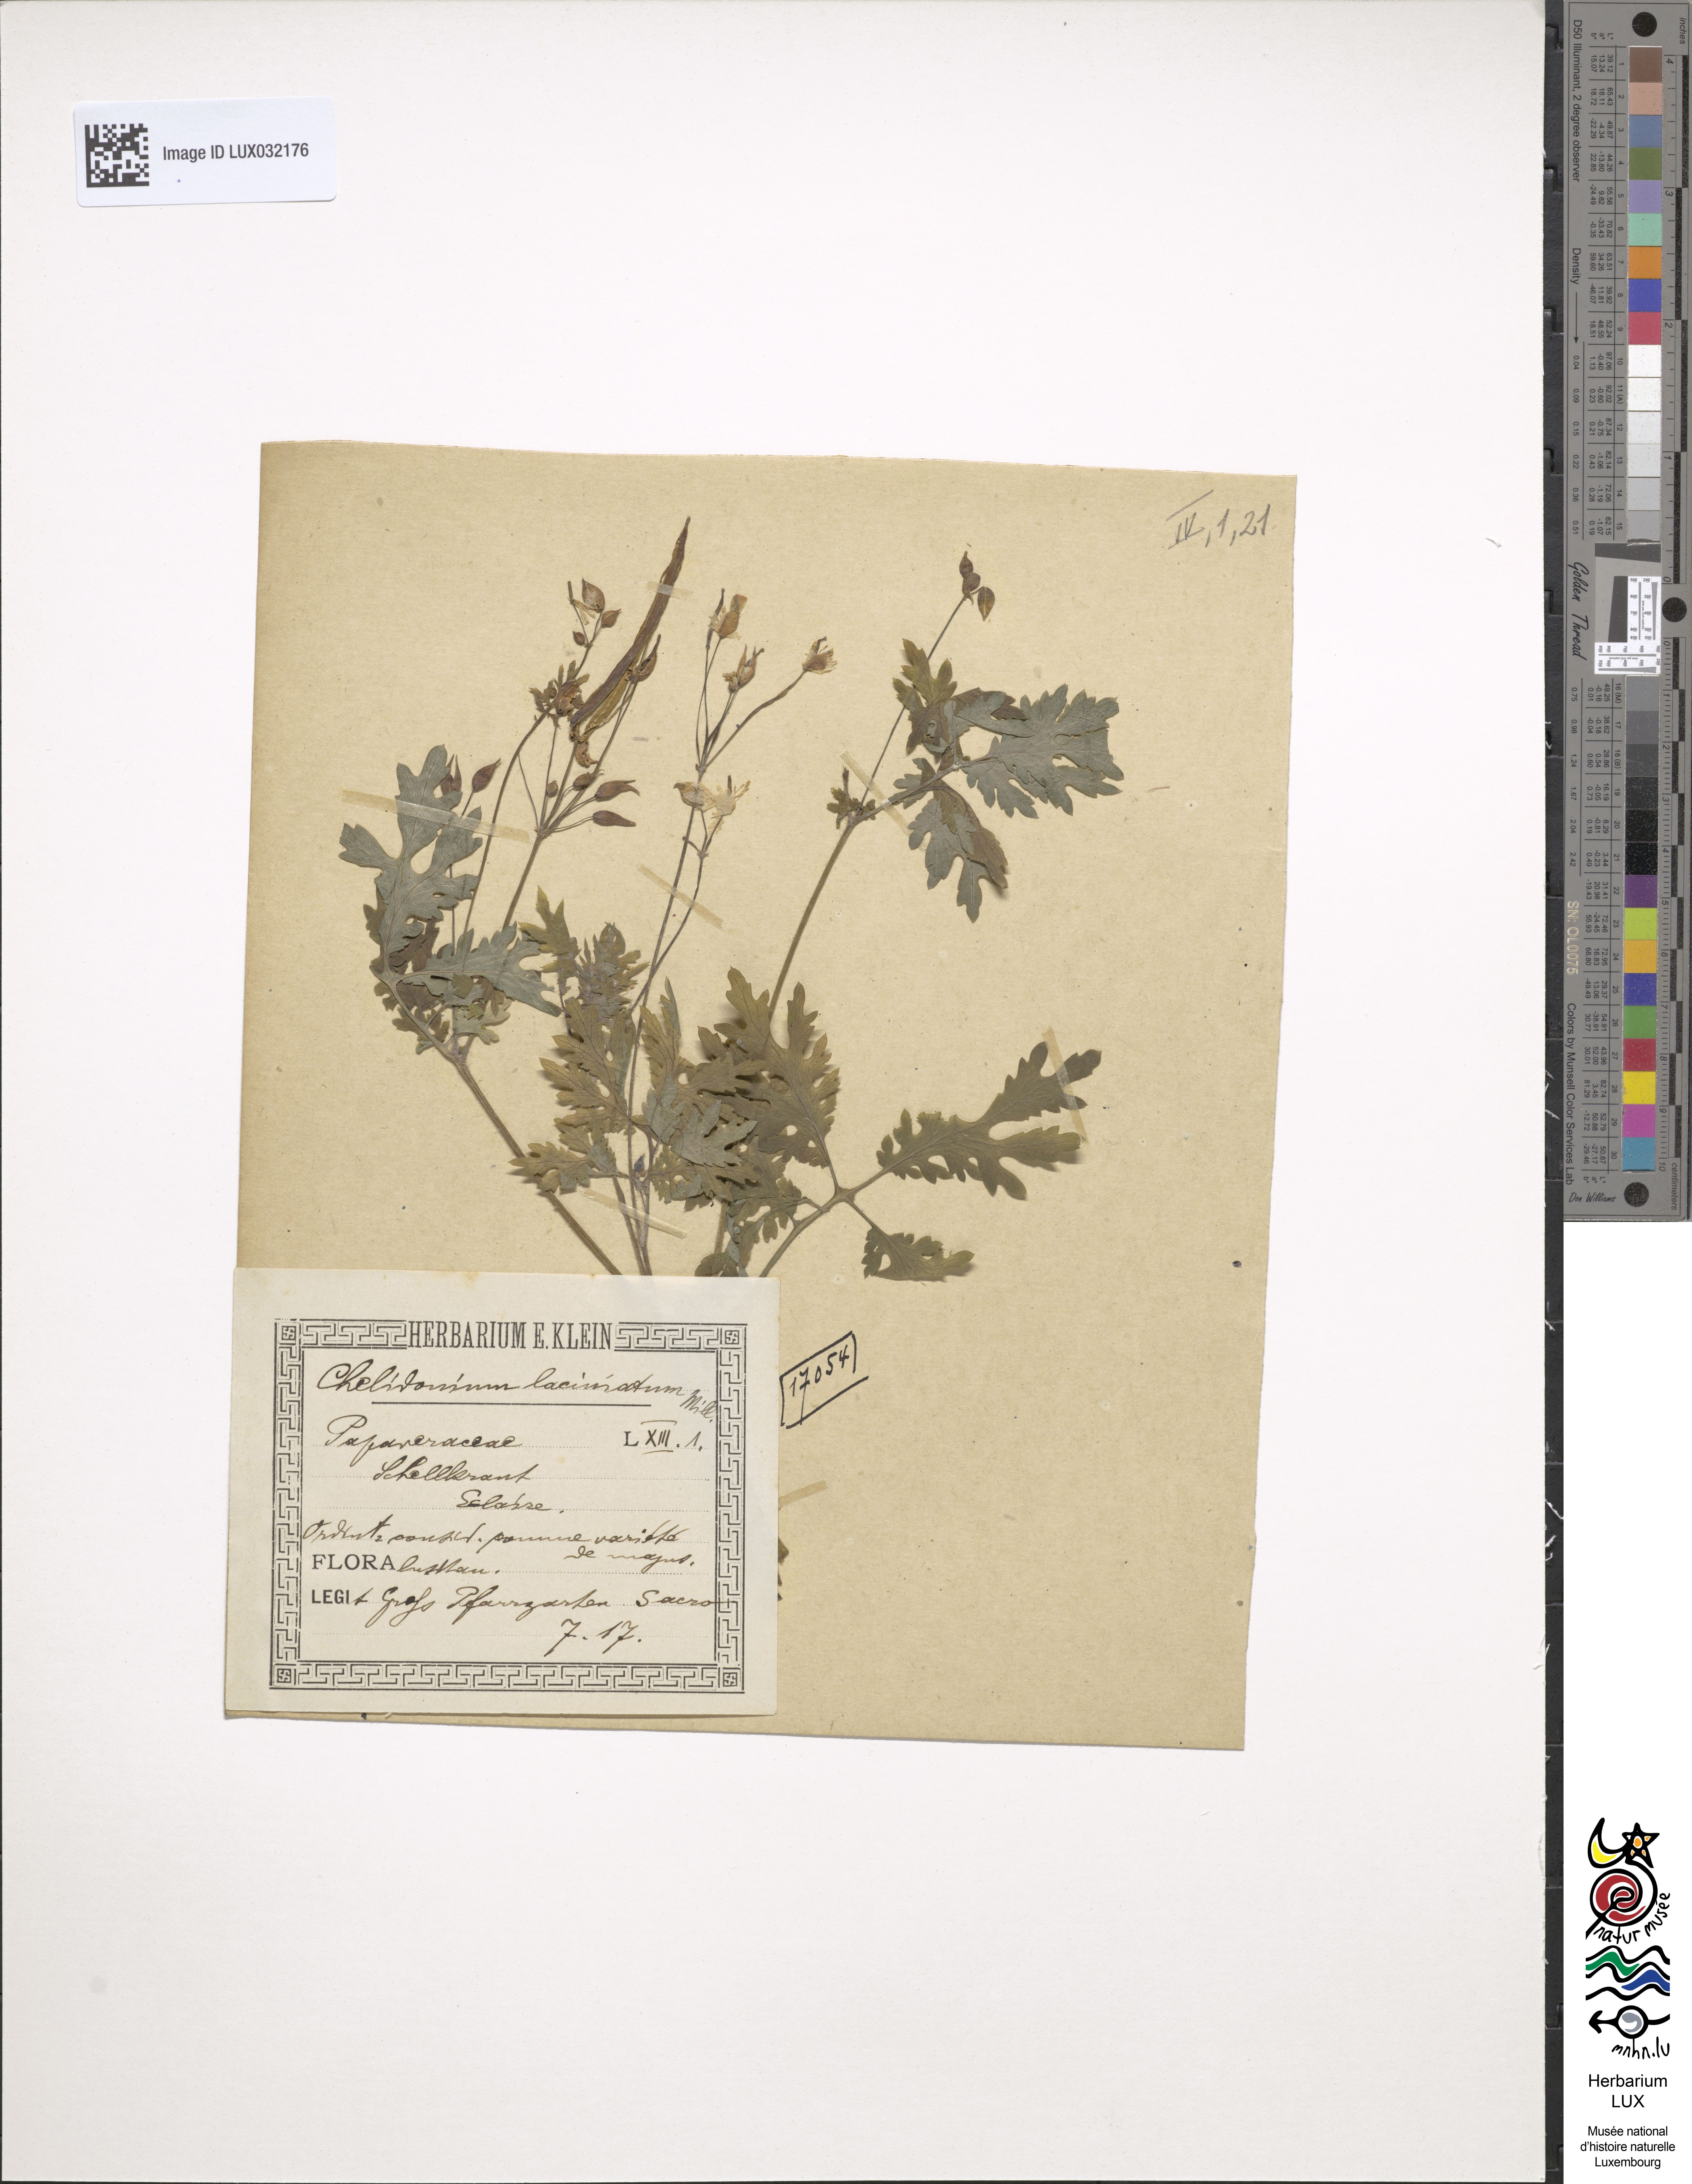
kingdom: Plantae
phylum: Tracheophyta
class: Magnoliopsida
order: Ranunculales
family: Papaveraceae
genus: Chelidonium
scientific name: Chelidonium majus
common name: Greater celandine
